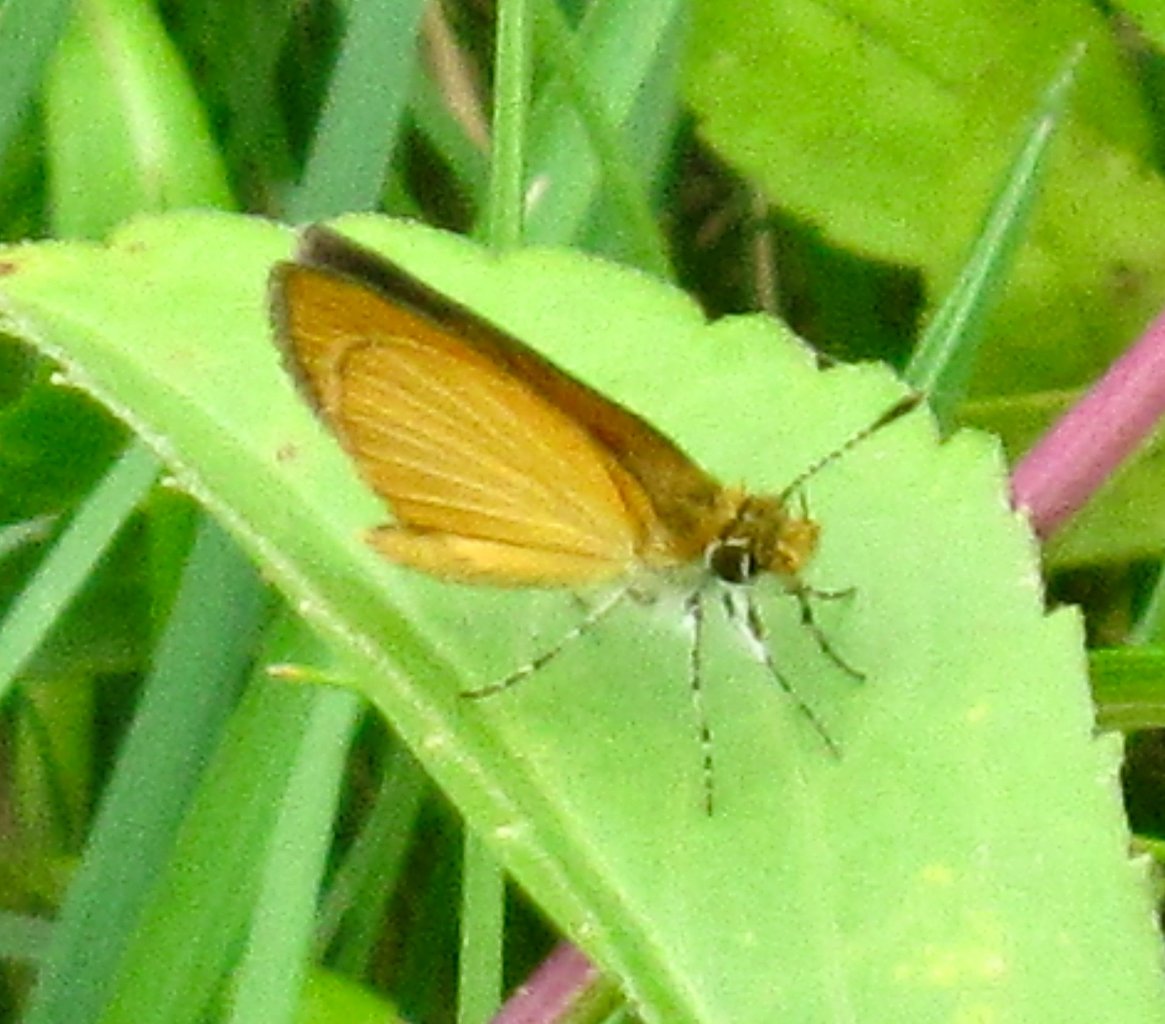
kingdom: Animalia
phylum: Arthropoda
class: Insecta
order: Lepidoptera
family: Hesperiidae
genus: Ancyloxypha
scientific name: Ancyloxypha numitor
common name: Least Skipper
